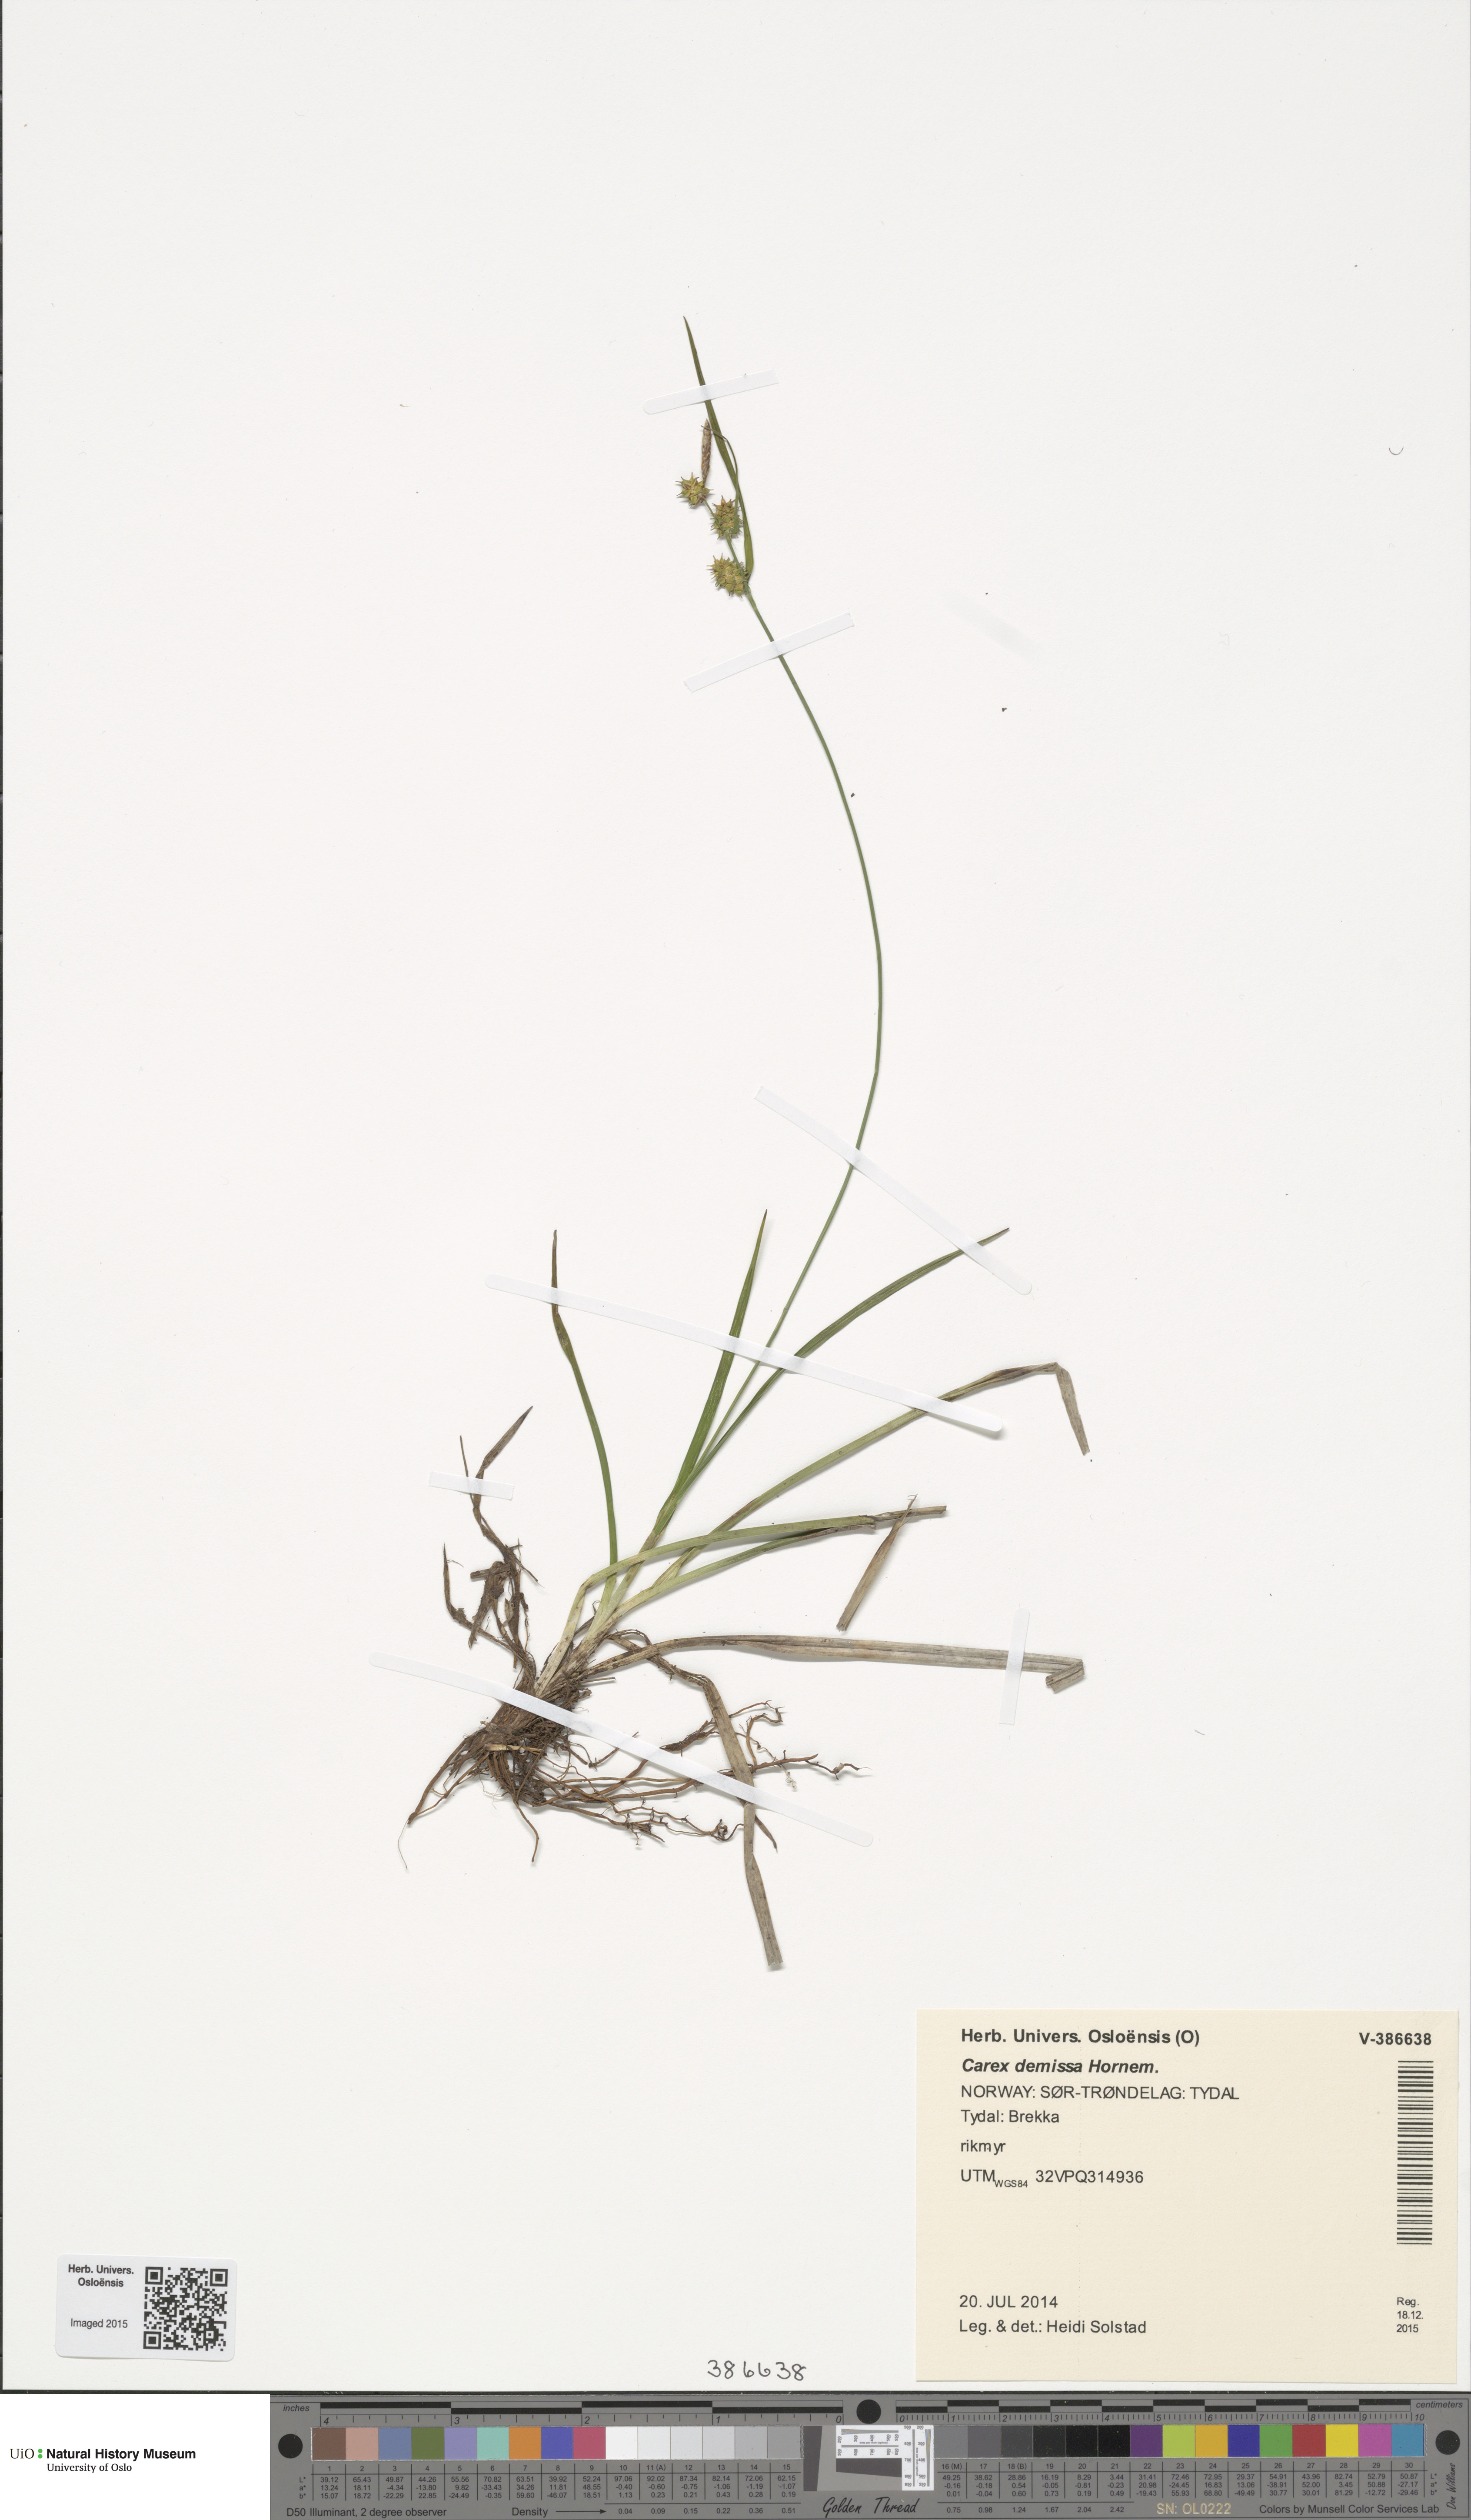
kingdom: Plantae
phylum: Tracheophyta
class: Liliopsida
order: Poales
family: Cyperaceae
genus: Carex
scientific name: Carex demissa
